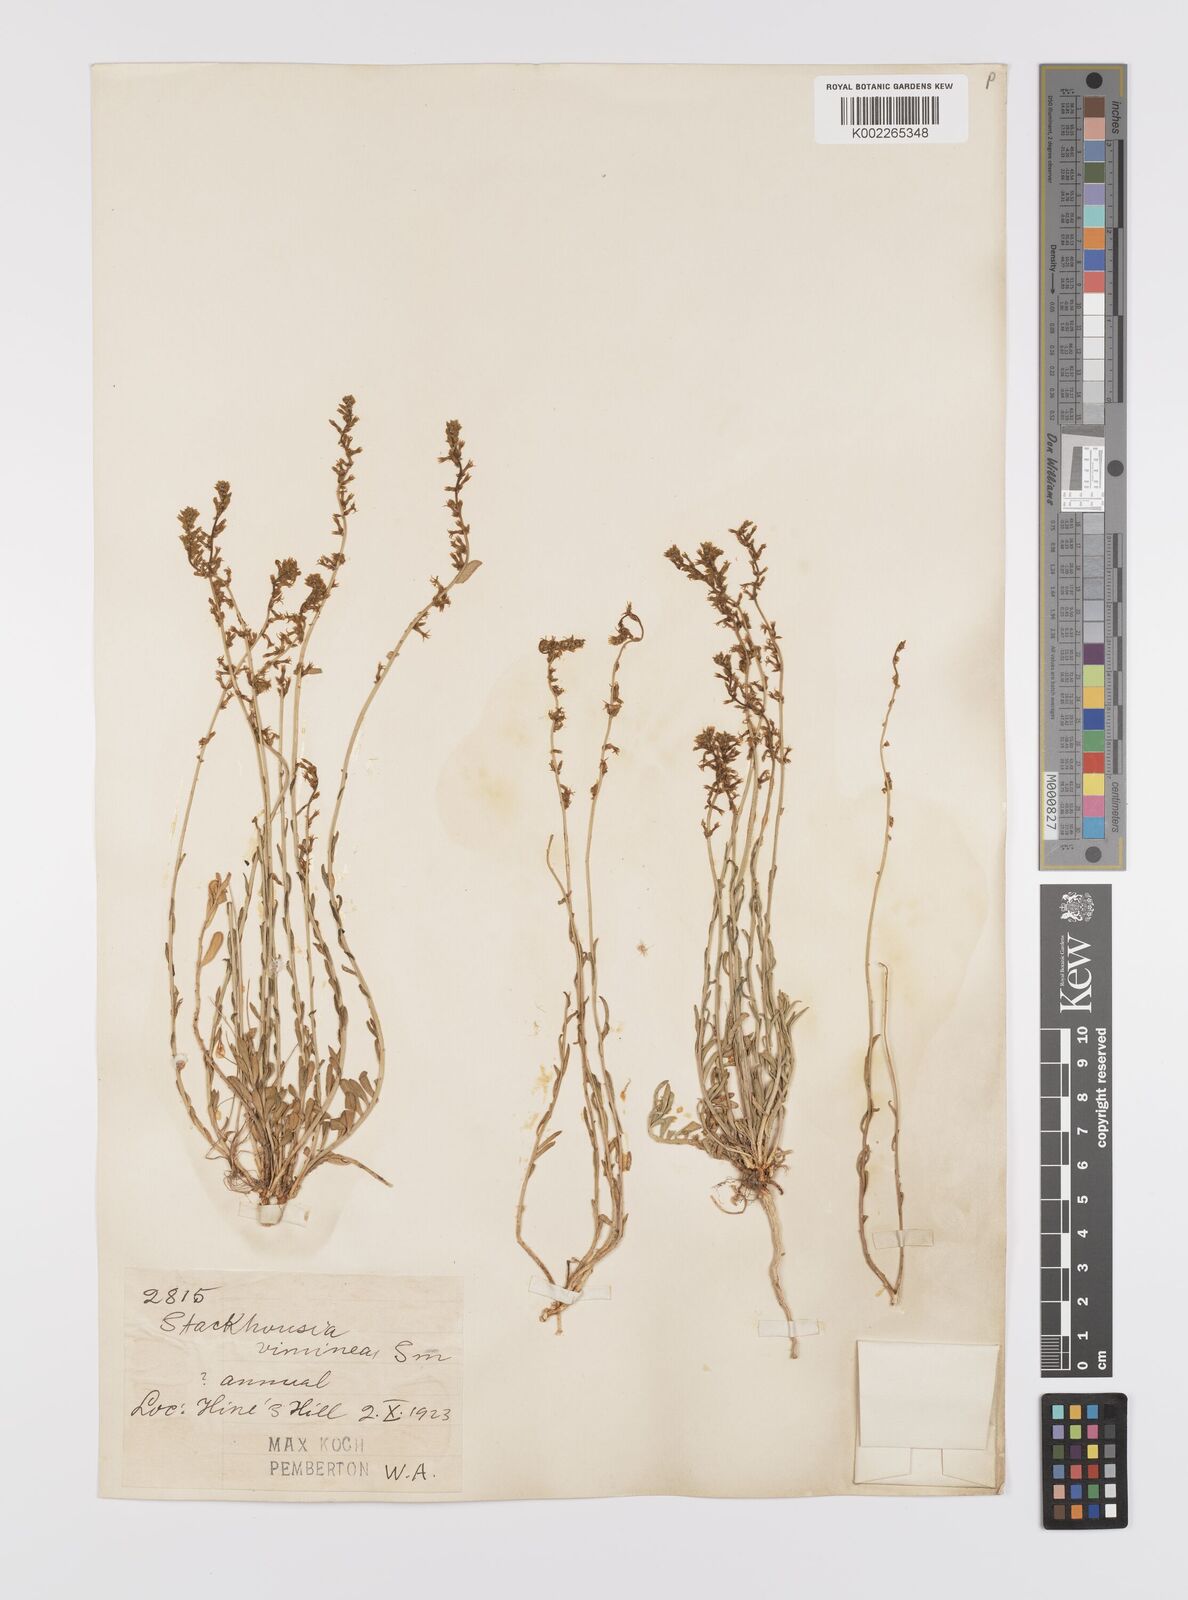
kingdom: Plantae
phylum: Tracheophyta
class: Magnoliopsida
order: Celastrales
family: Celastraceae
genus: Stackhousia
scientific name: Stackhousia muricata
